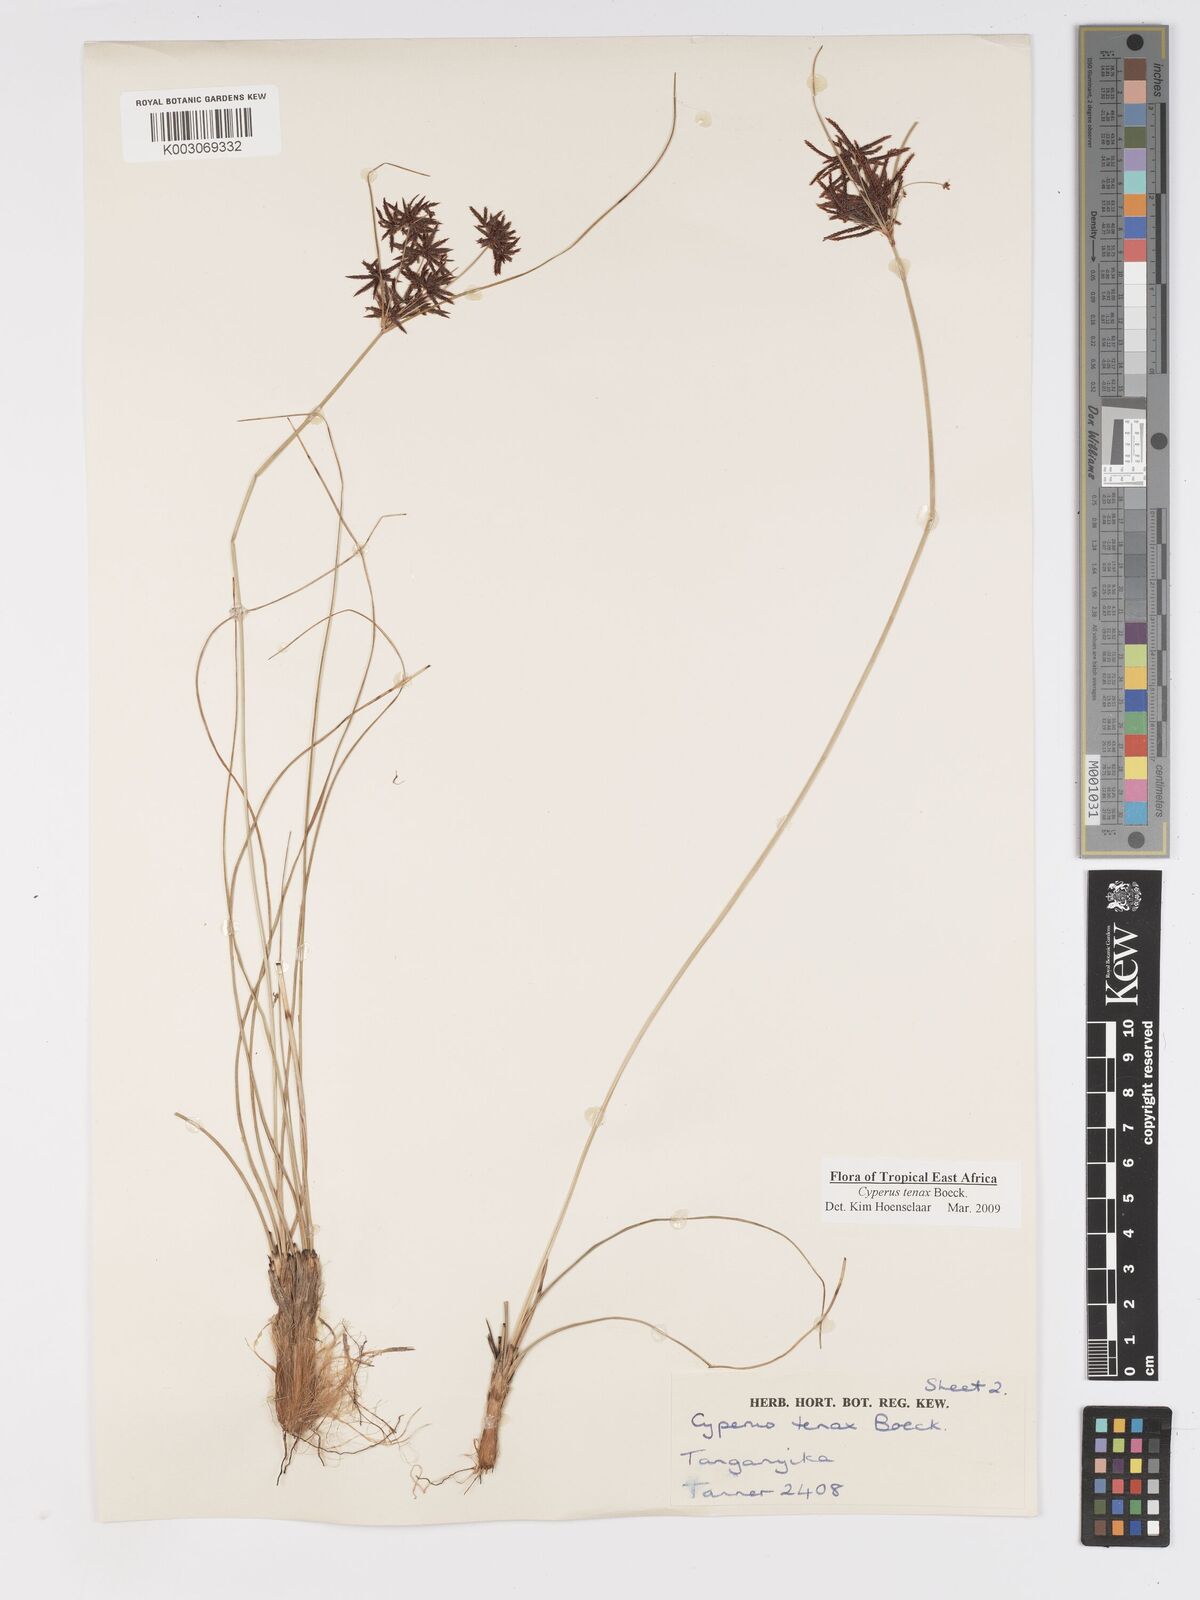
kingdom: Plantae
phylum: Tracheophyta
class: Liliopsida
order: Poales
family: Cyperaceae
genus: Cyperus
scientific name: Cyperus tenax
